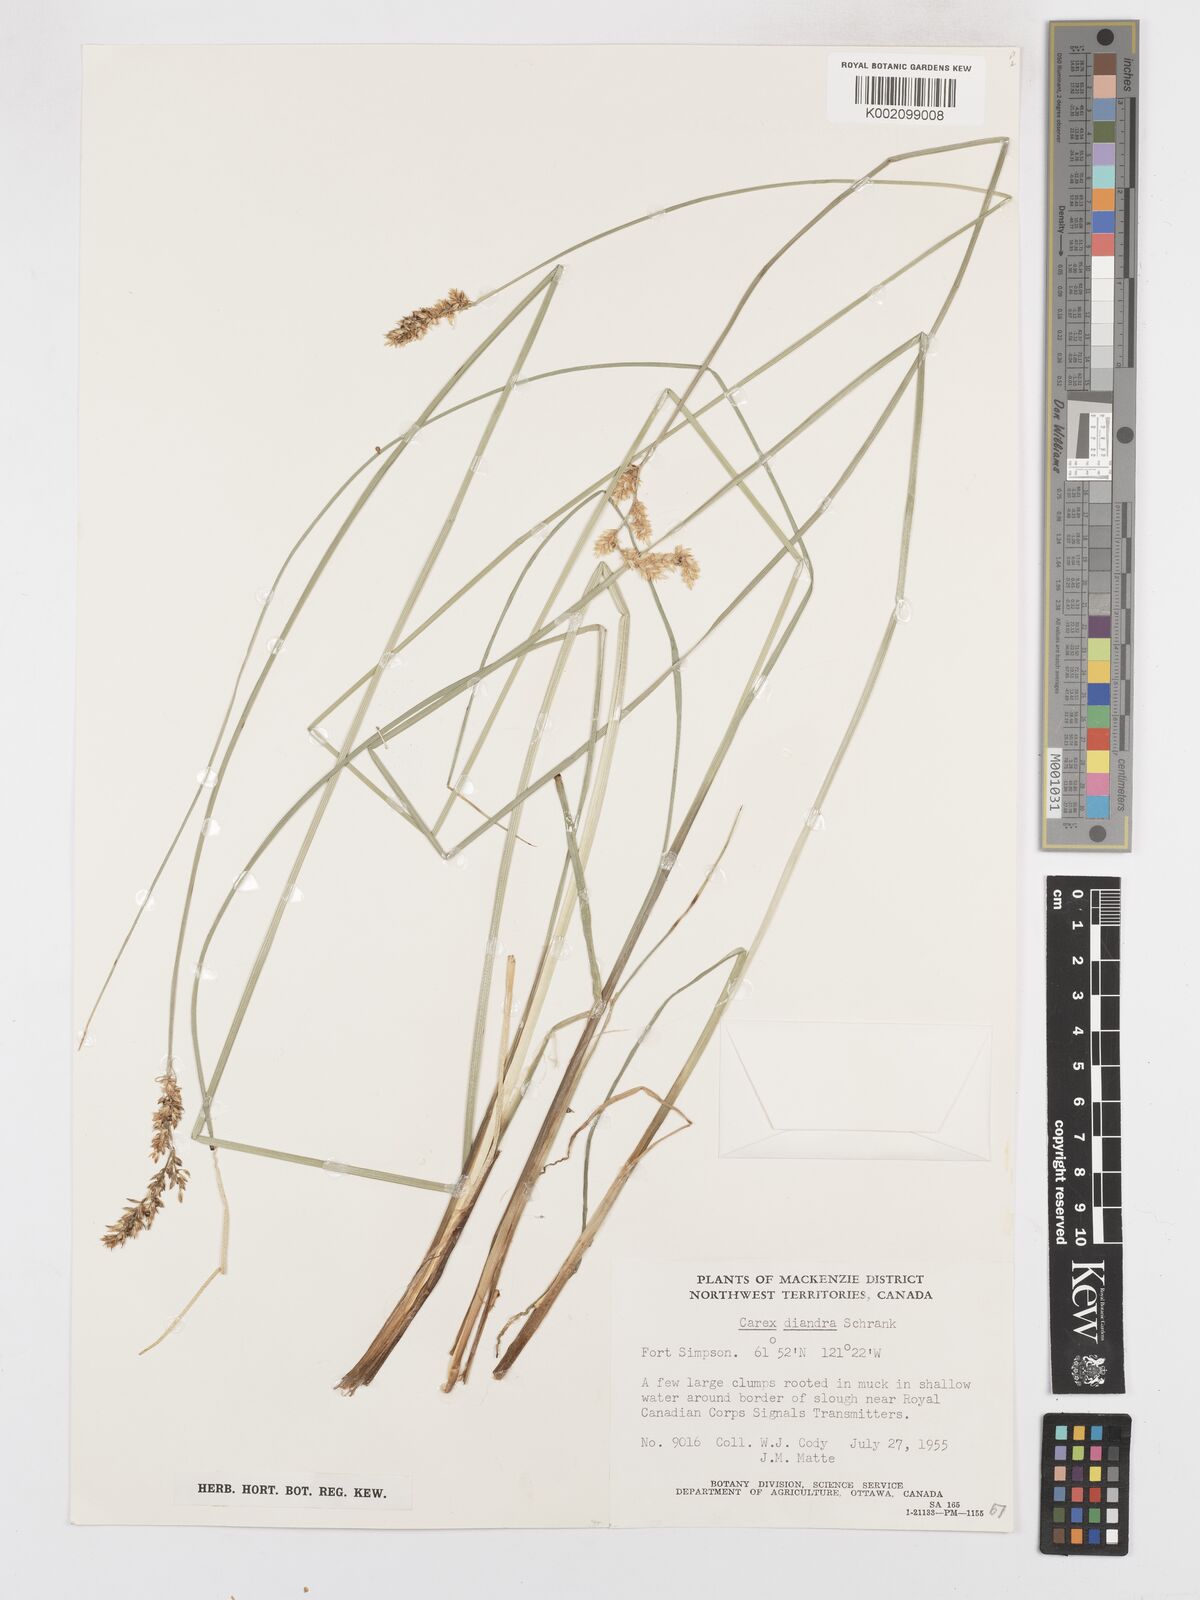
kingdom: Plantae
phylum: Tracheophyta
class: Liliopsida
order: Poales
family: Cyperaceae
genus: Carex
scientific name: Carex diandra
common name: Lesser tussock-sedge
